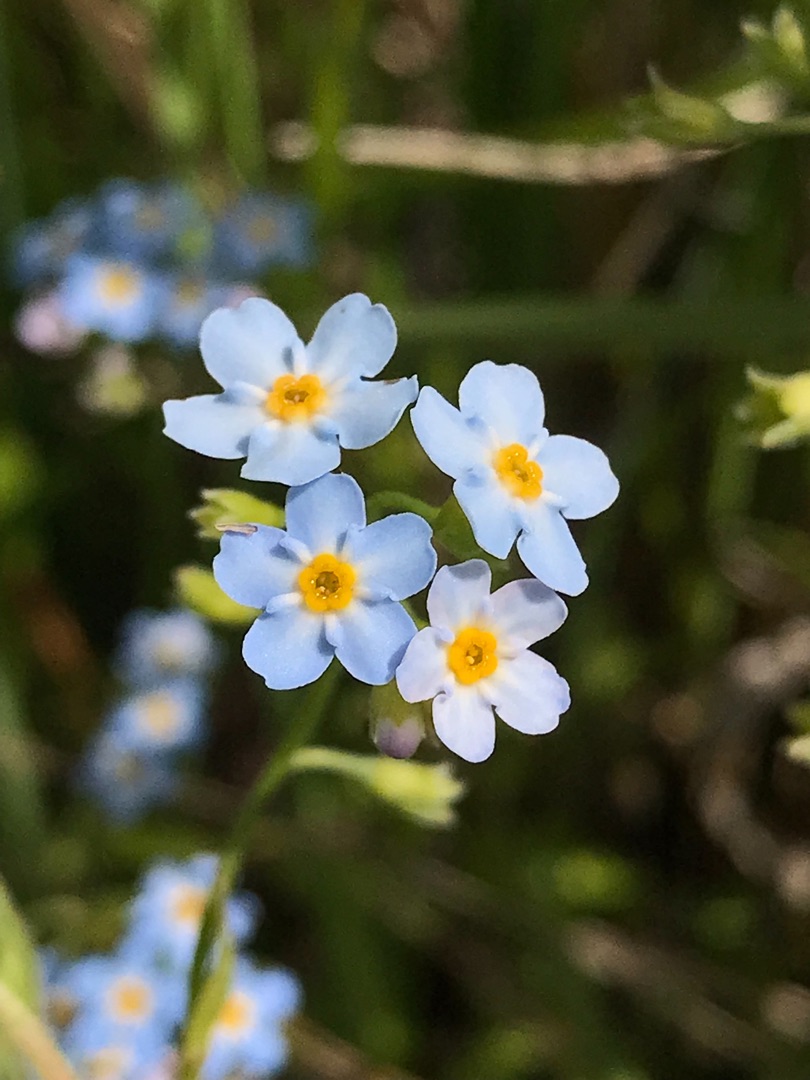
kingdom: Plantae
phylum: Tracheophyta
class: Magnoliopsida
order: Boraginales
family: Boraginaceae
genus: Myosotis
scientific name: Myosotis scorpioides
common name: Eng-forglemmigej
